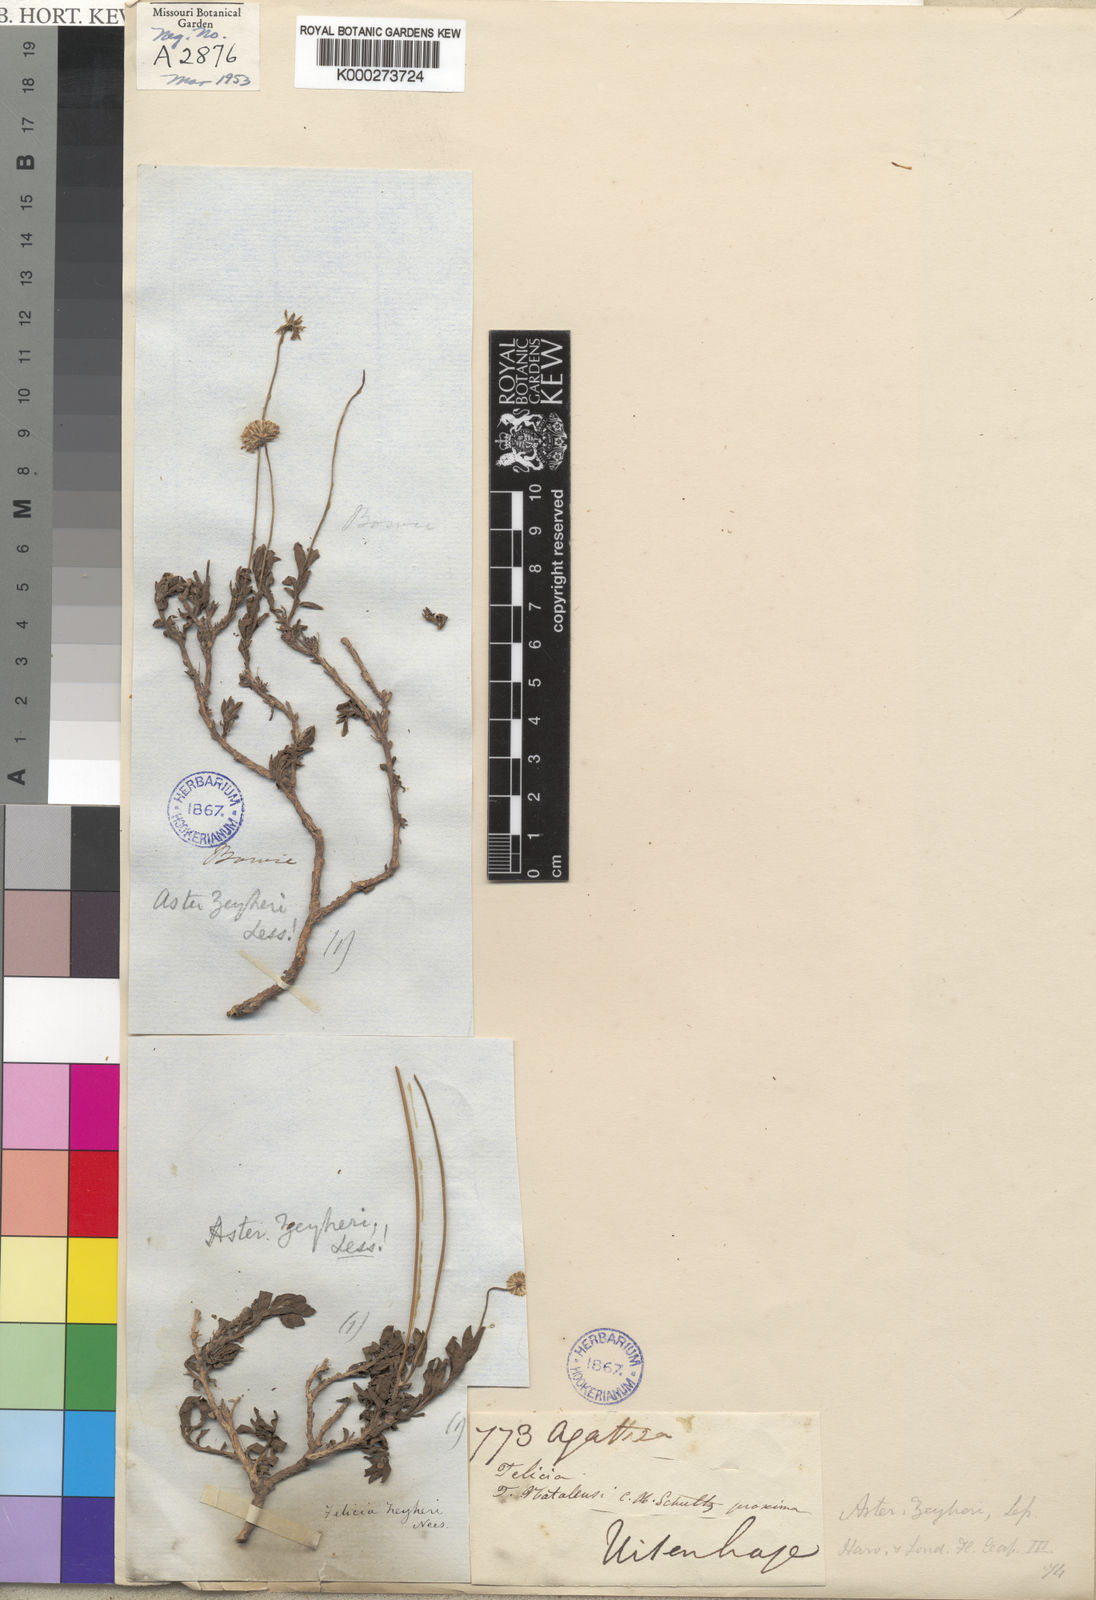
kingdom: Plantae
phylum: Tracheophyta
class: Magnoliopsida
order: Asterales
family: Asteraceae
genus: Felicia
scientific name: Felicia zeyheri
